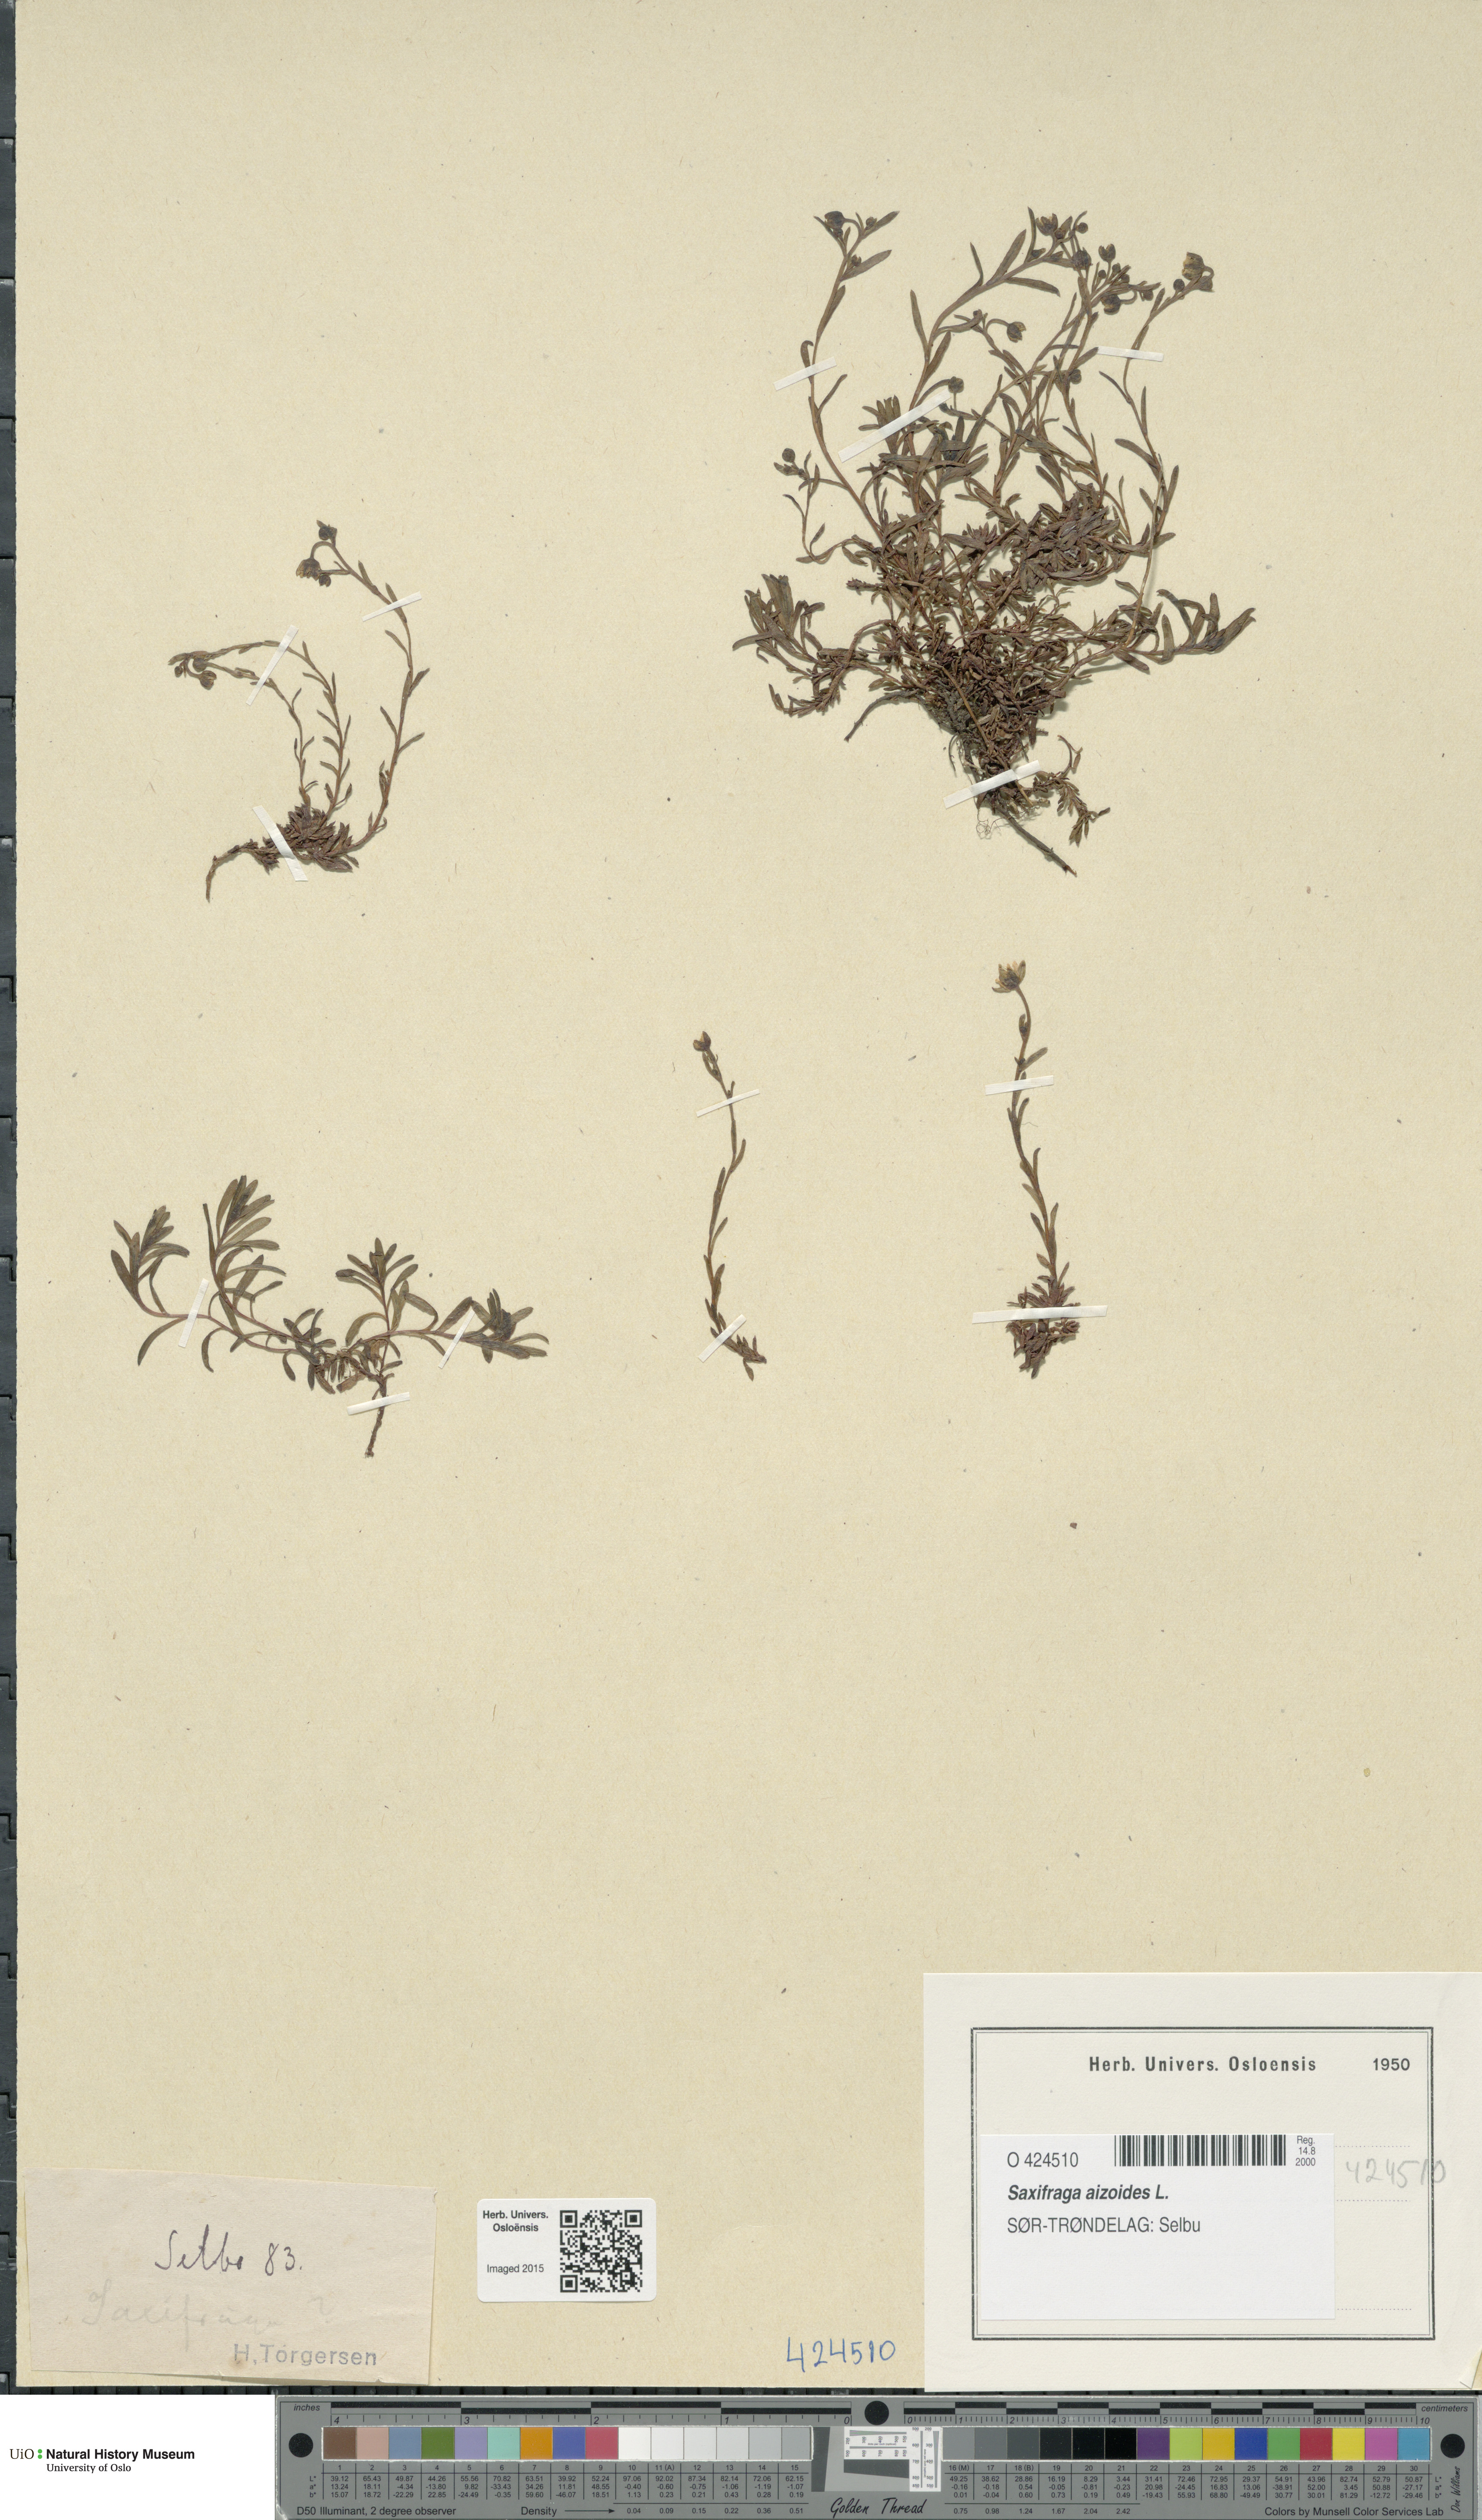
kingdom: Plantae
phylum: Tracheophyta
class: Magnoliopsida
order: Saxifragales
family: Saxifragaceae
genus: Saxifraga
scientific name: Saxifraga aizoides
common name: Yellow mountain saxifrage
